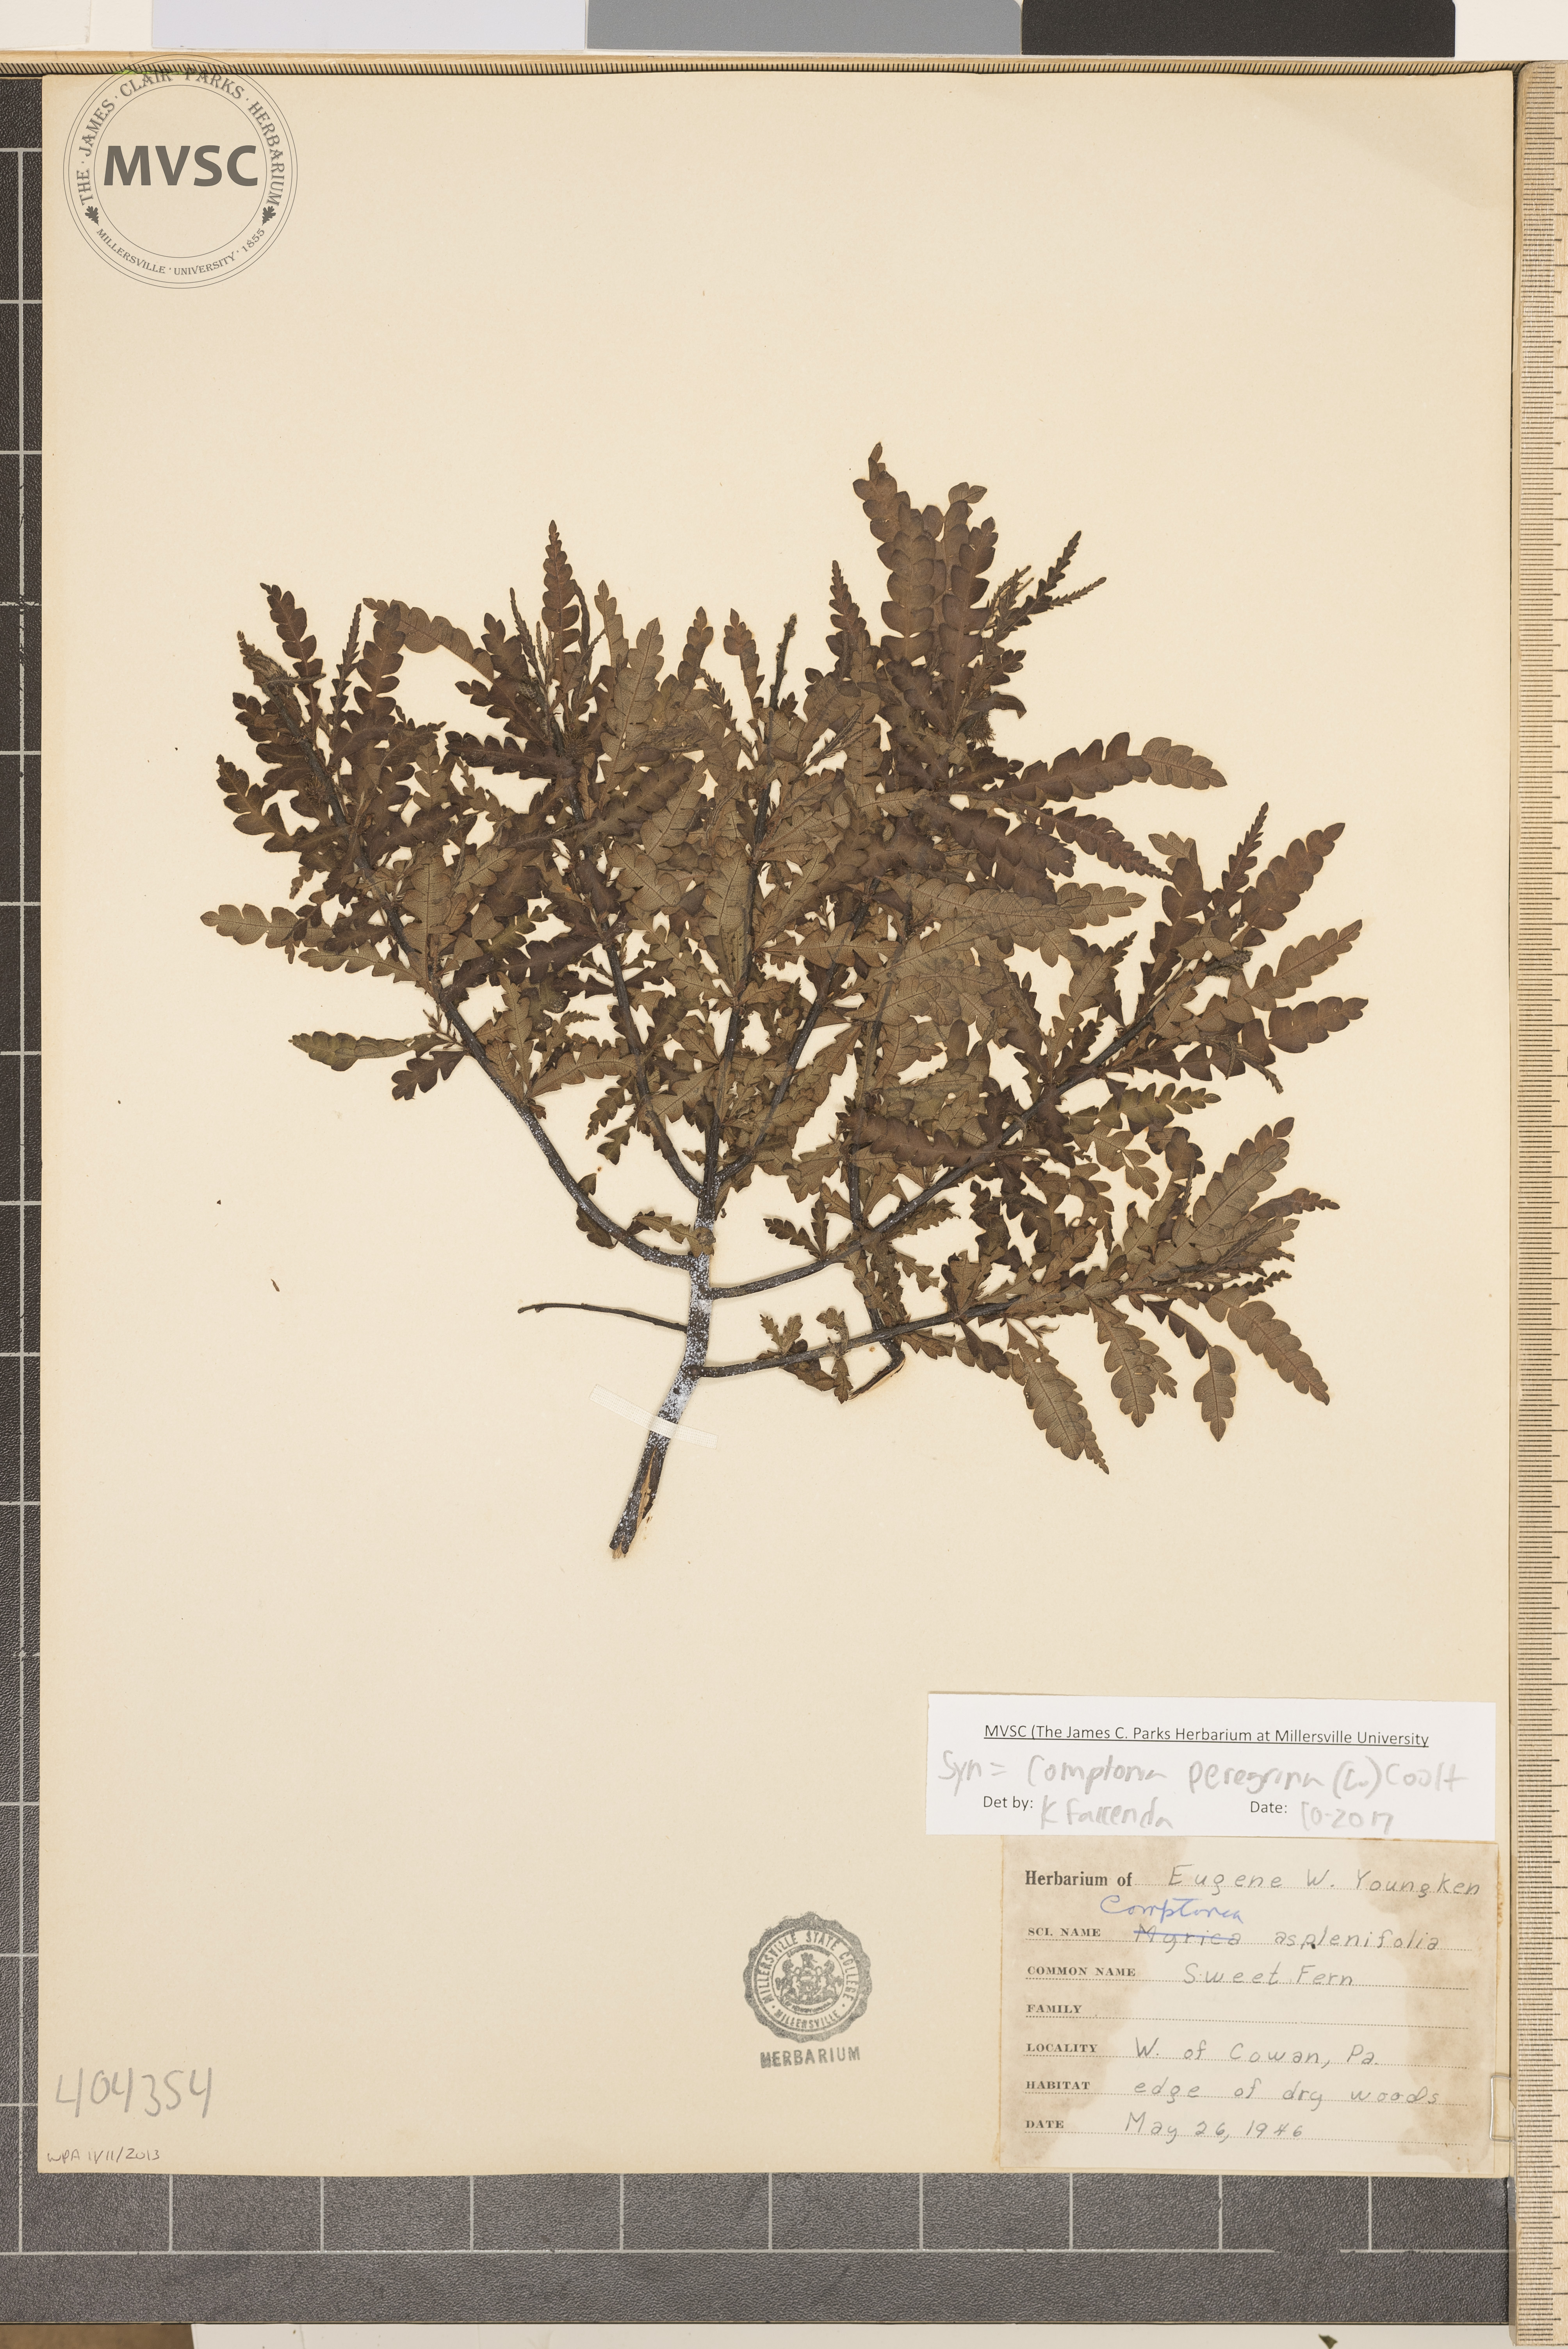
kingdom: Plantae
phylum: Tracheophyta
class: Magnoliopsida
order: Fagales
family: Myricaceae
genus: Comptonia
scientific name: Comptonia peregrina
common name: Sweet fern
